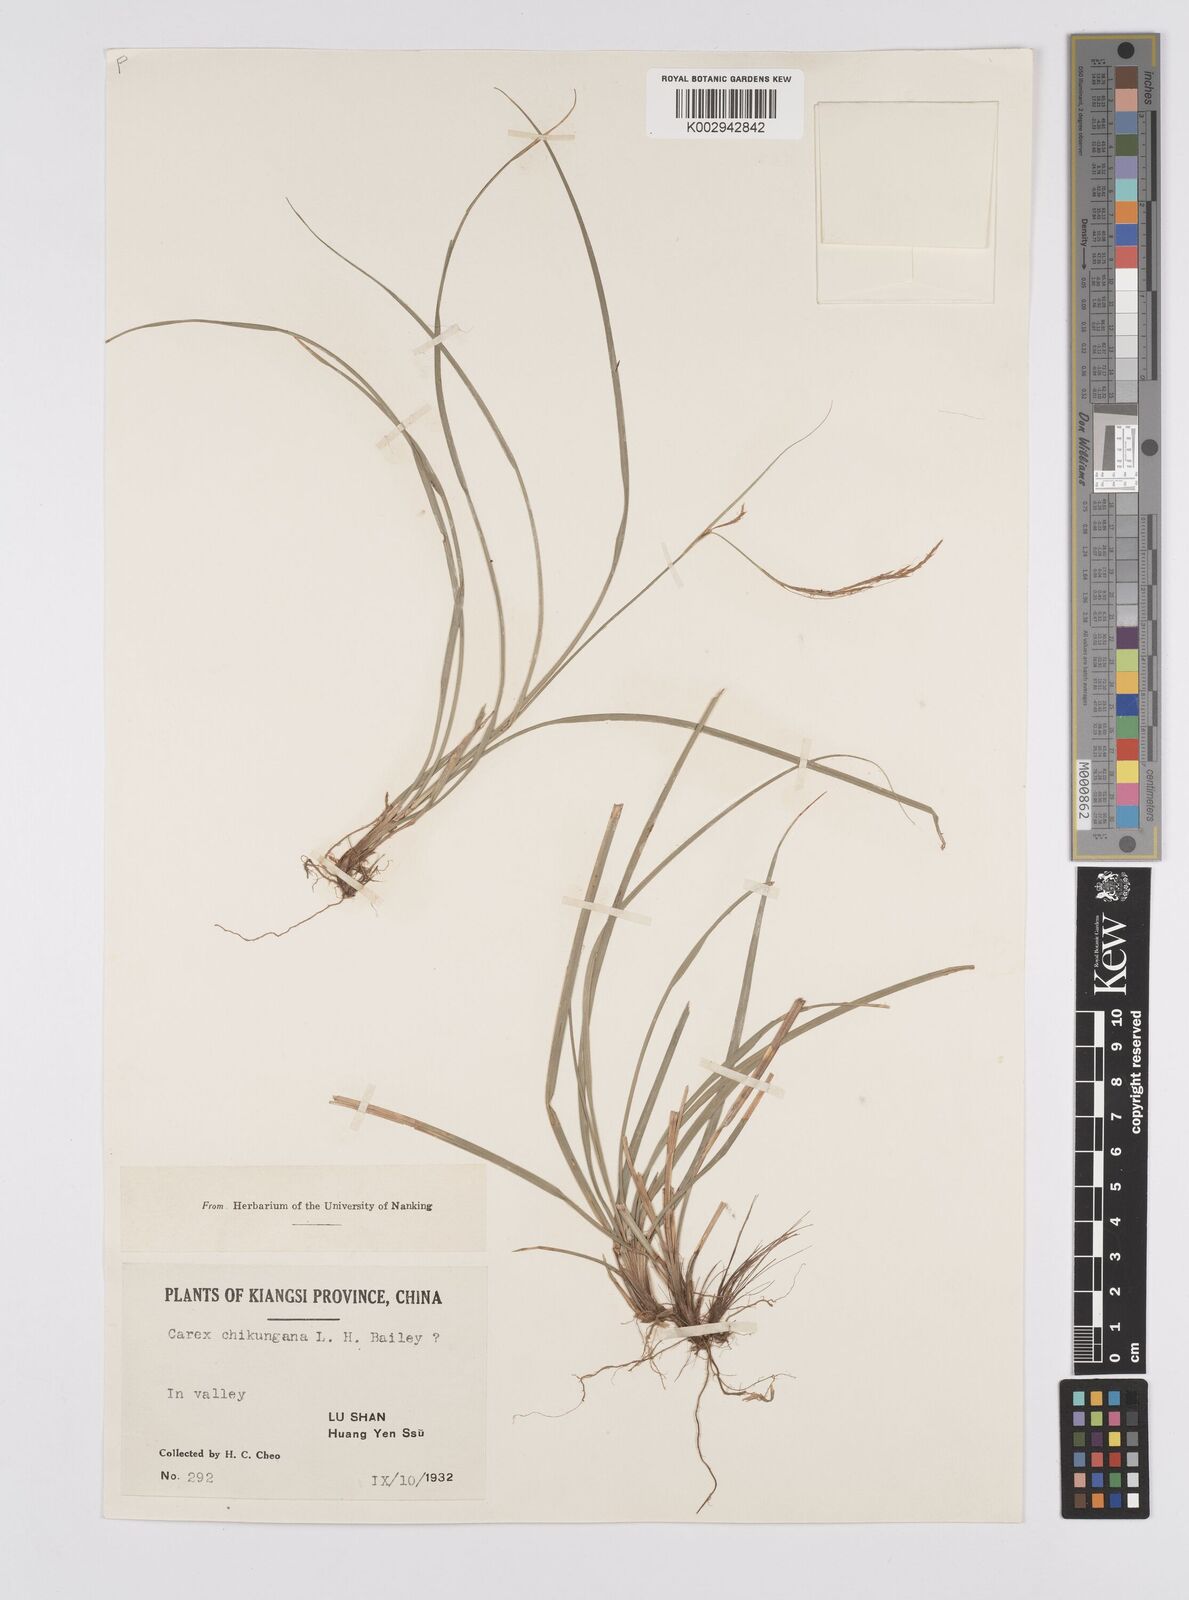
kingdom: Plantae
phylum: Tracheophyta
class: Liliopsida
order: Poales
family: Cyperaceae
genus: Carex
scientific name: Carex chikungana
